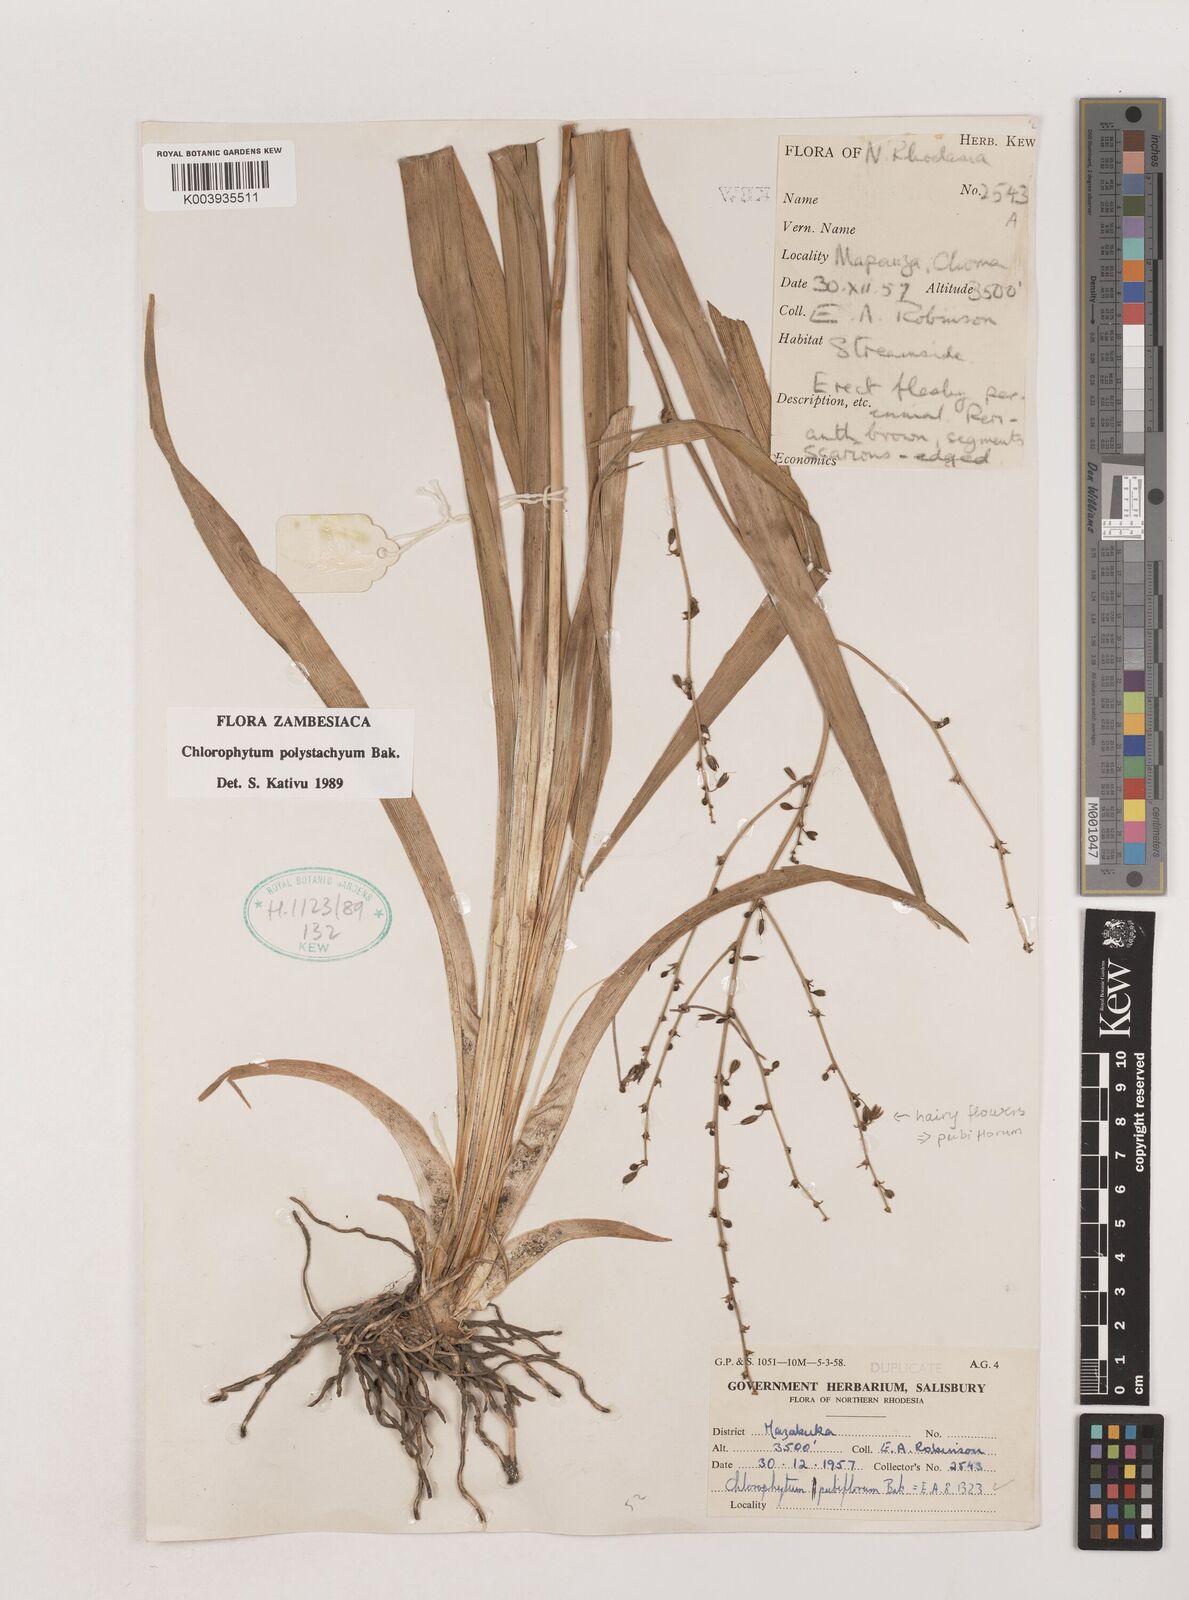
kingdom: Plantae
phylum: Tracheophyta
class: Liliopsida
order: Asparagales
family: Asparagaceae
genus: Chlorophytum
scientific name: Chlorophytum pubiflorum
